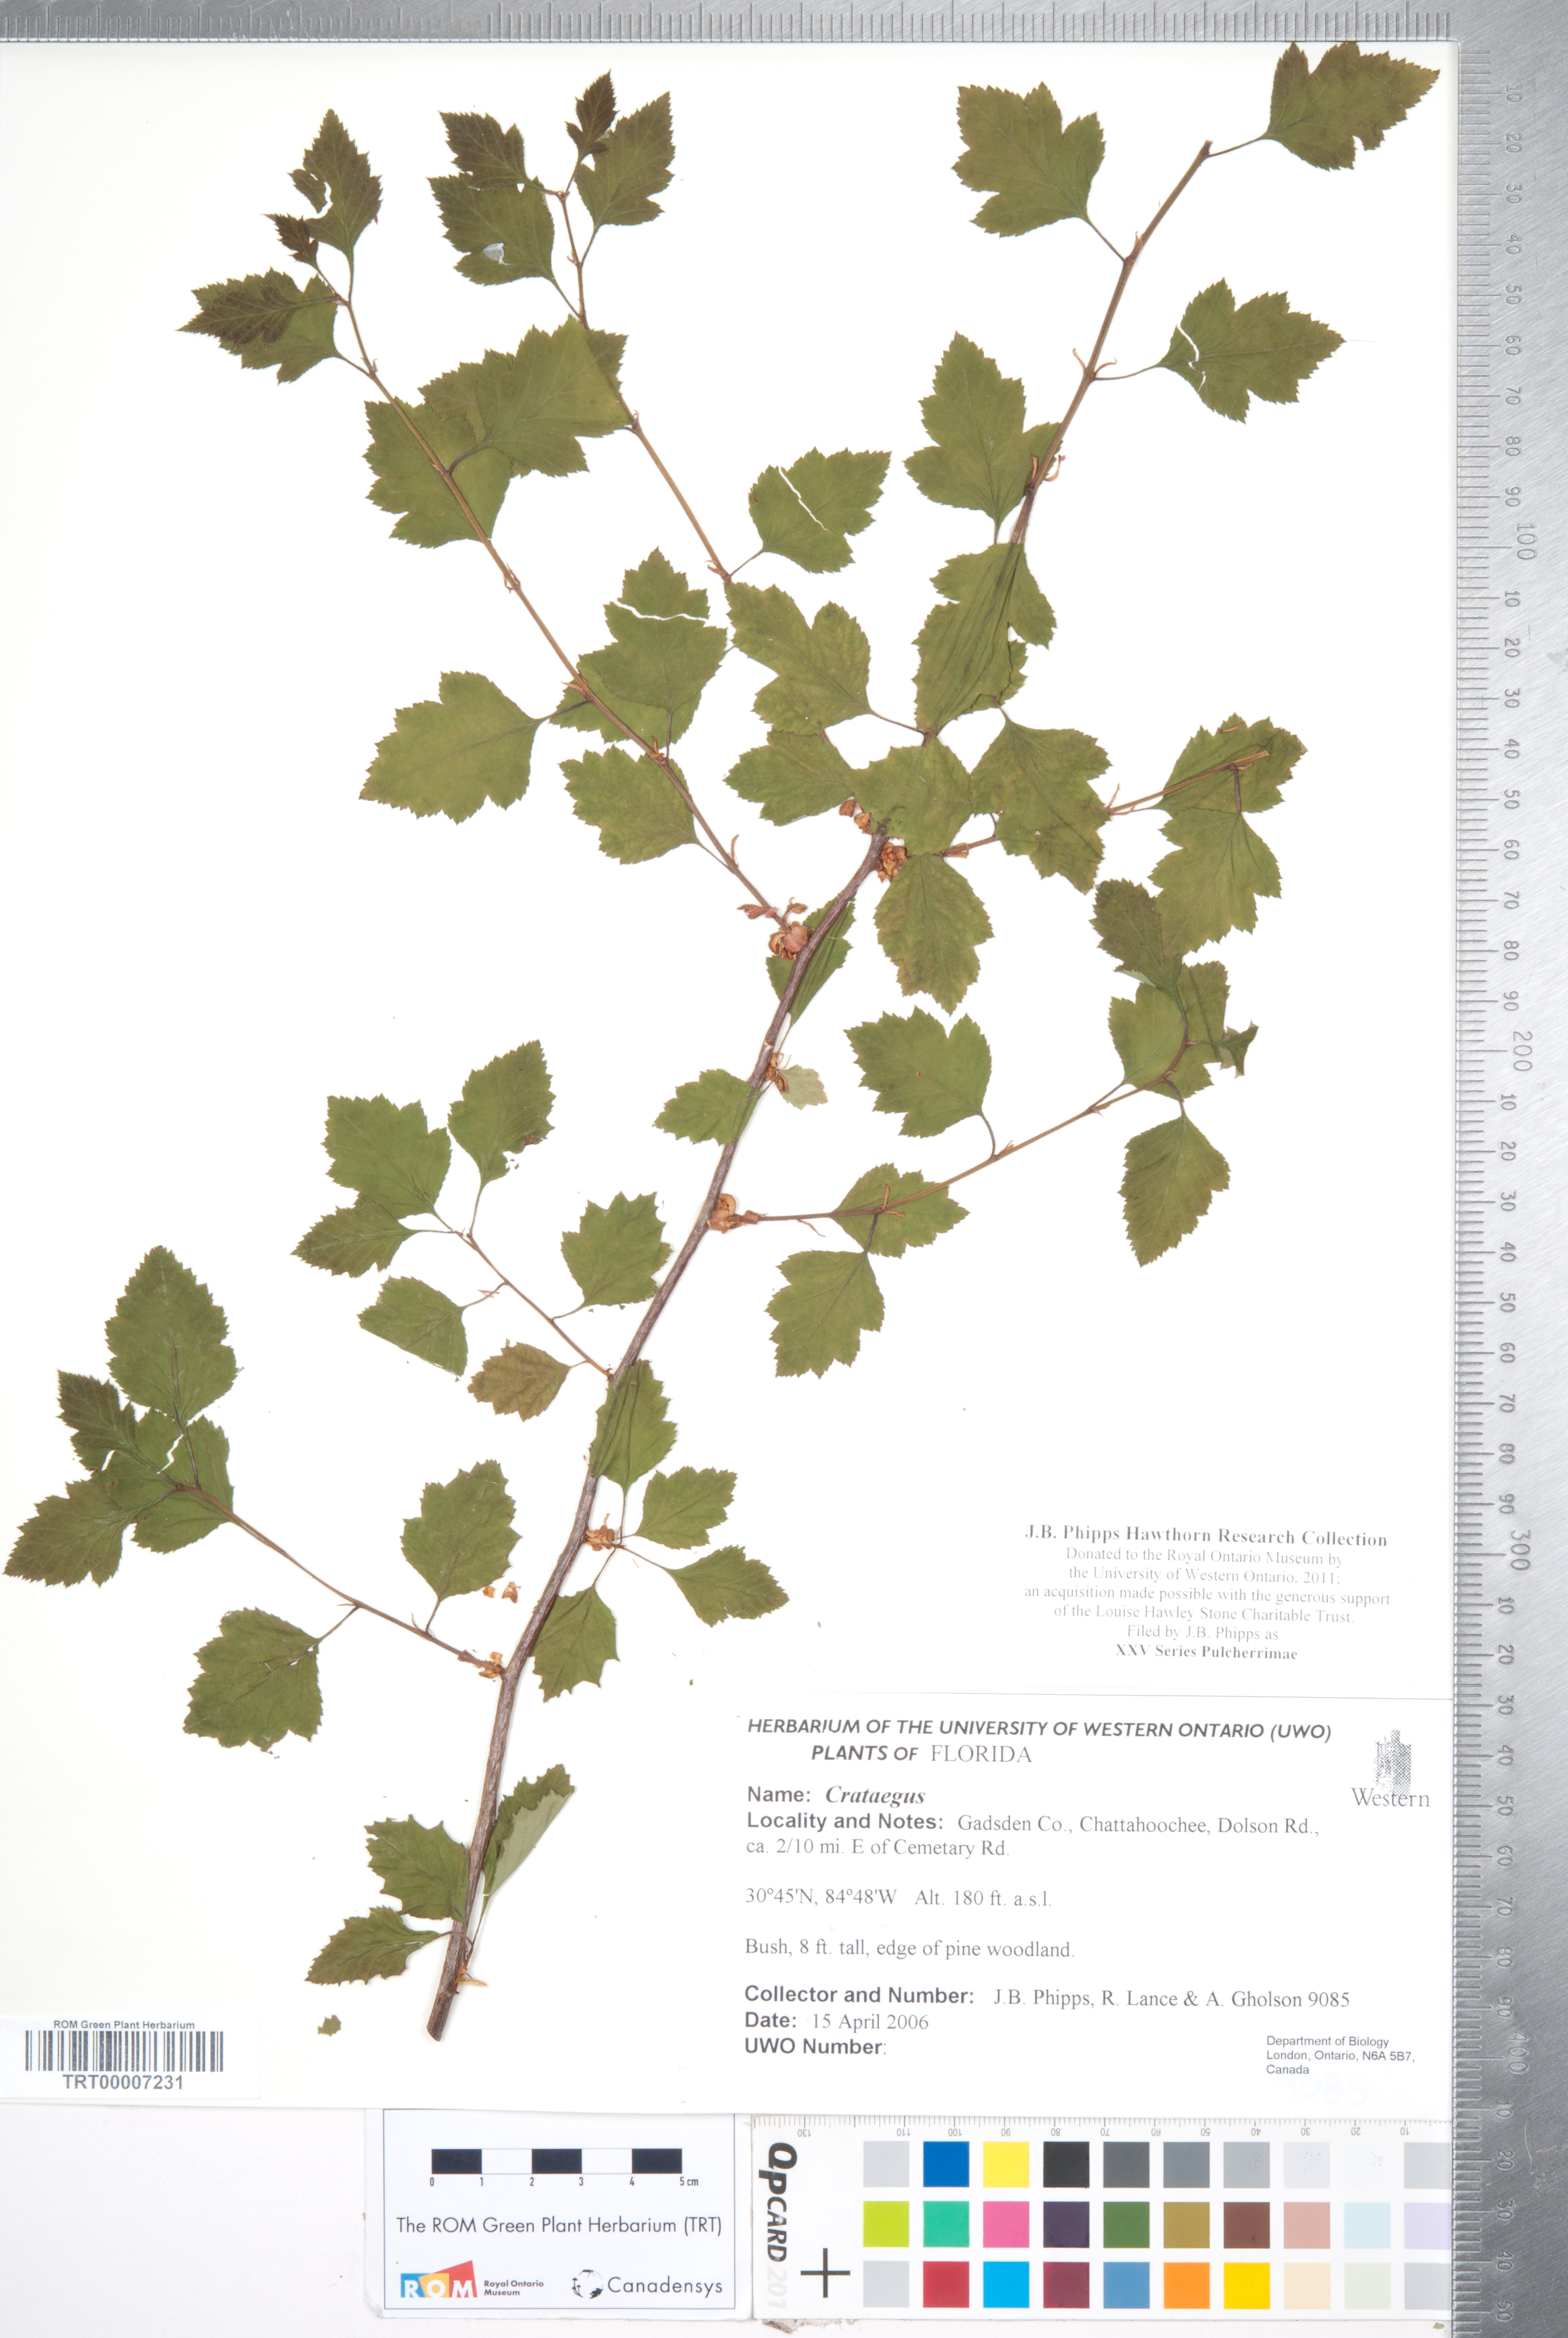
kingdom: Plantae
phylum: Tracheophyta
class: Magnoliopsida
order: Rosales
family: Rosaceae
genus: Crataegus
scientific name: Crataegus
